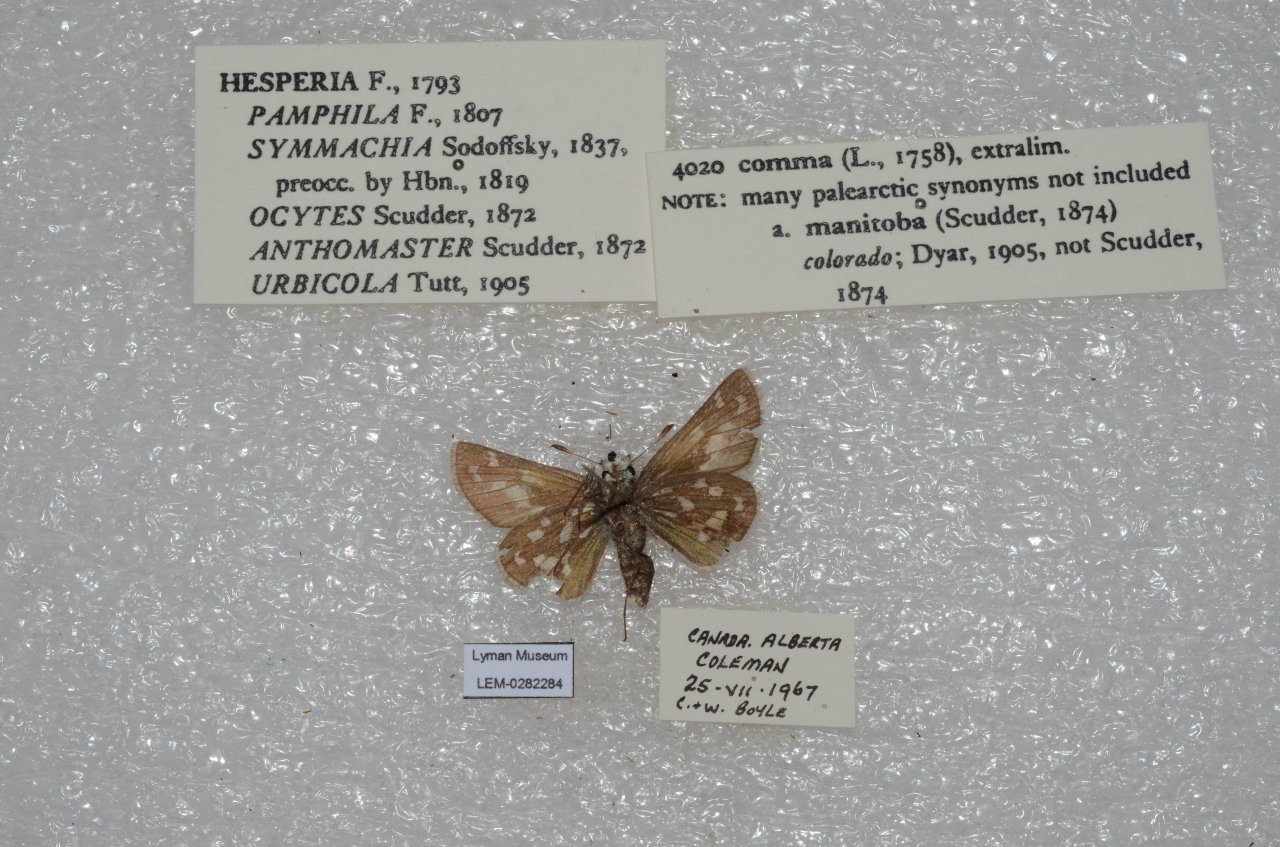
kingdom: Animalia
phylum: Arthropoda
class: Insecta
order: Lepidoptera
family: Hesperiidae
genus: Hesperia
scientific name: Hesperia comma
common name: Common Branded Skipper
